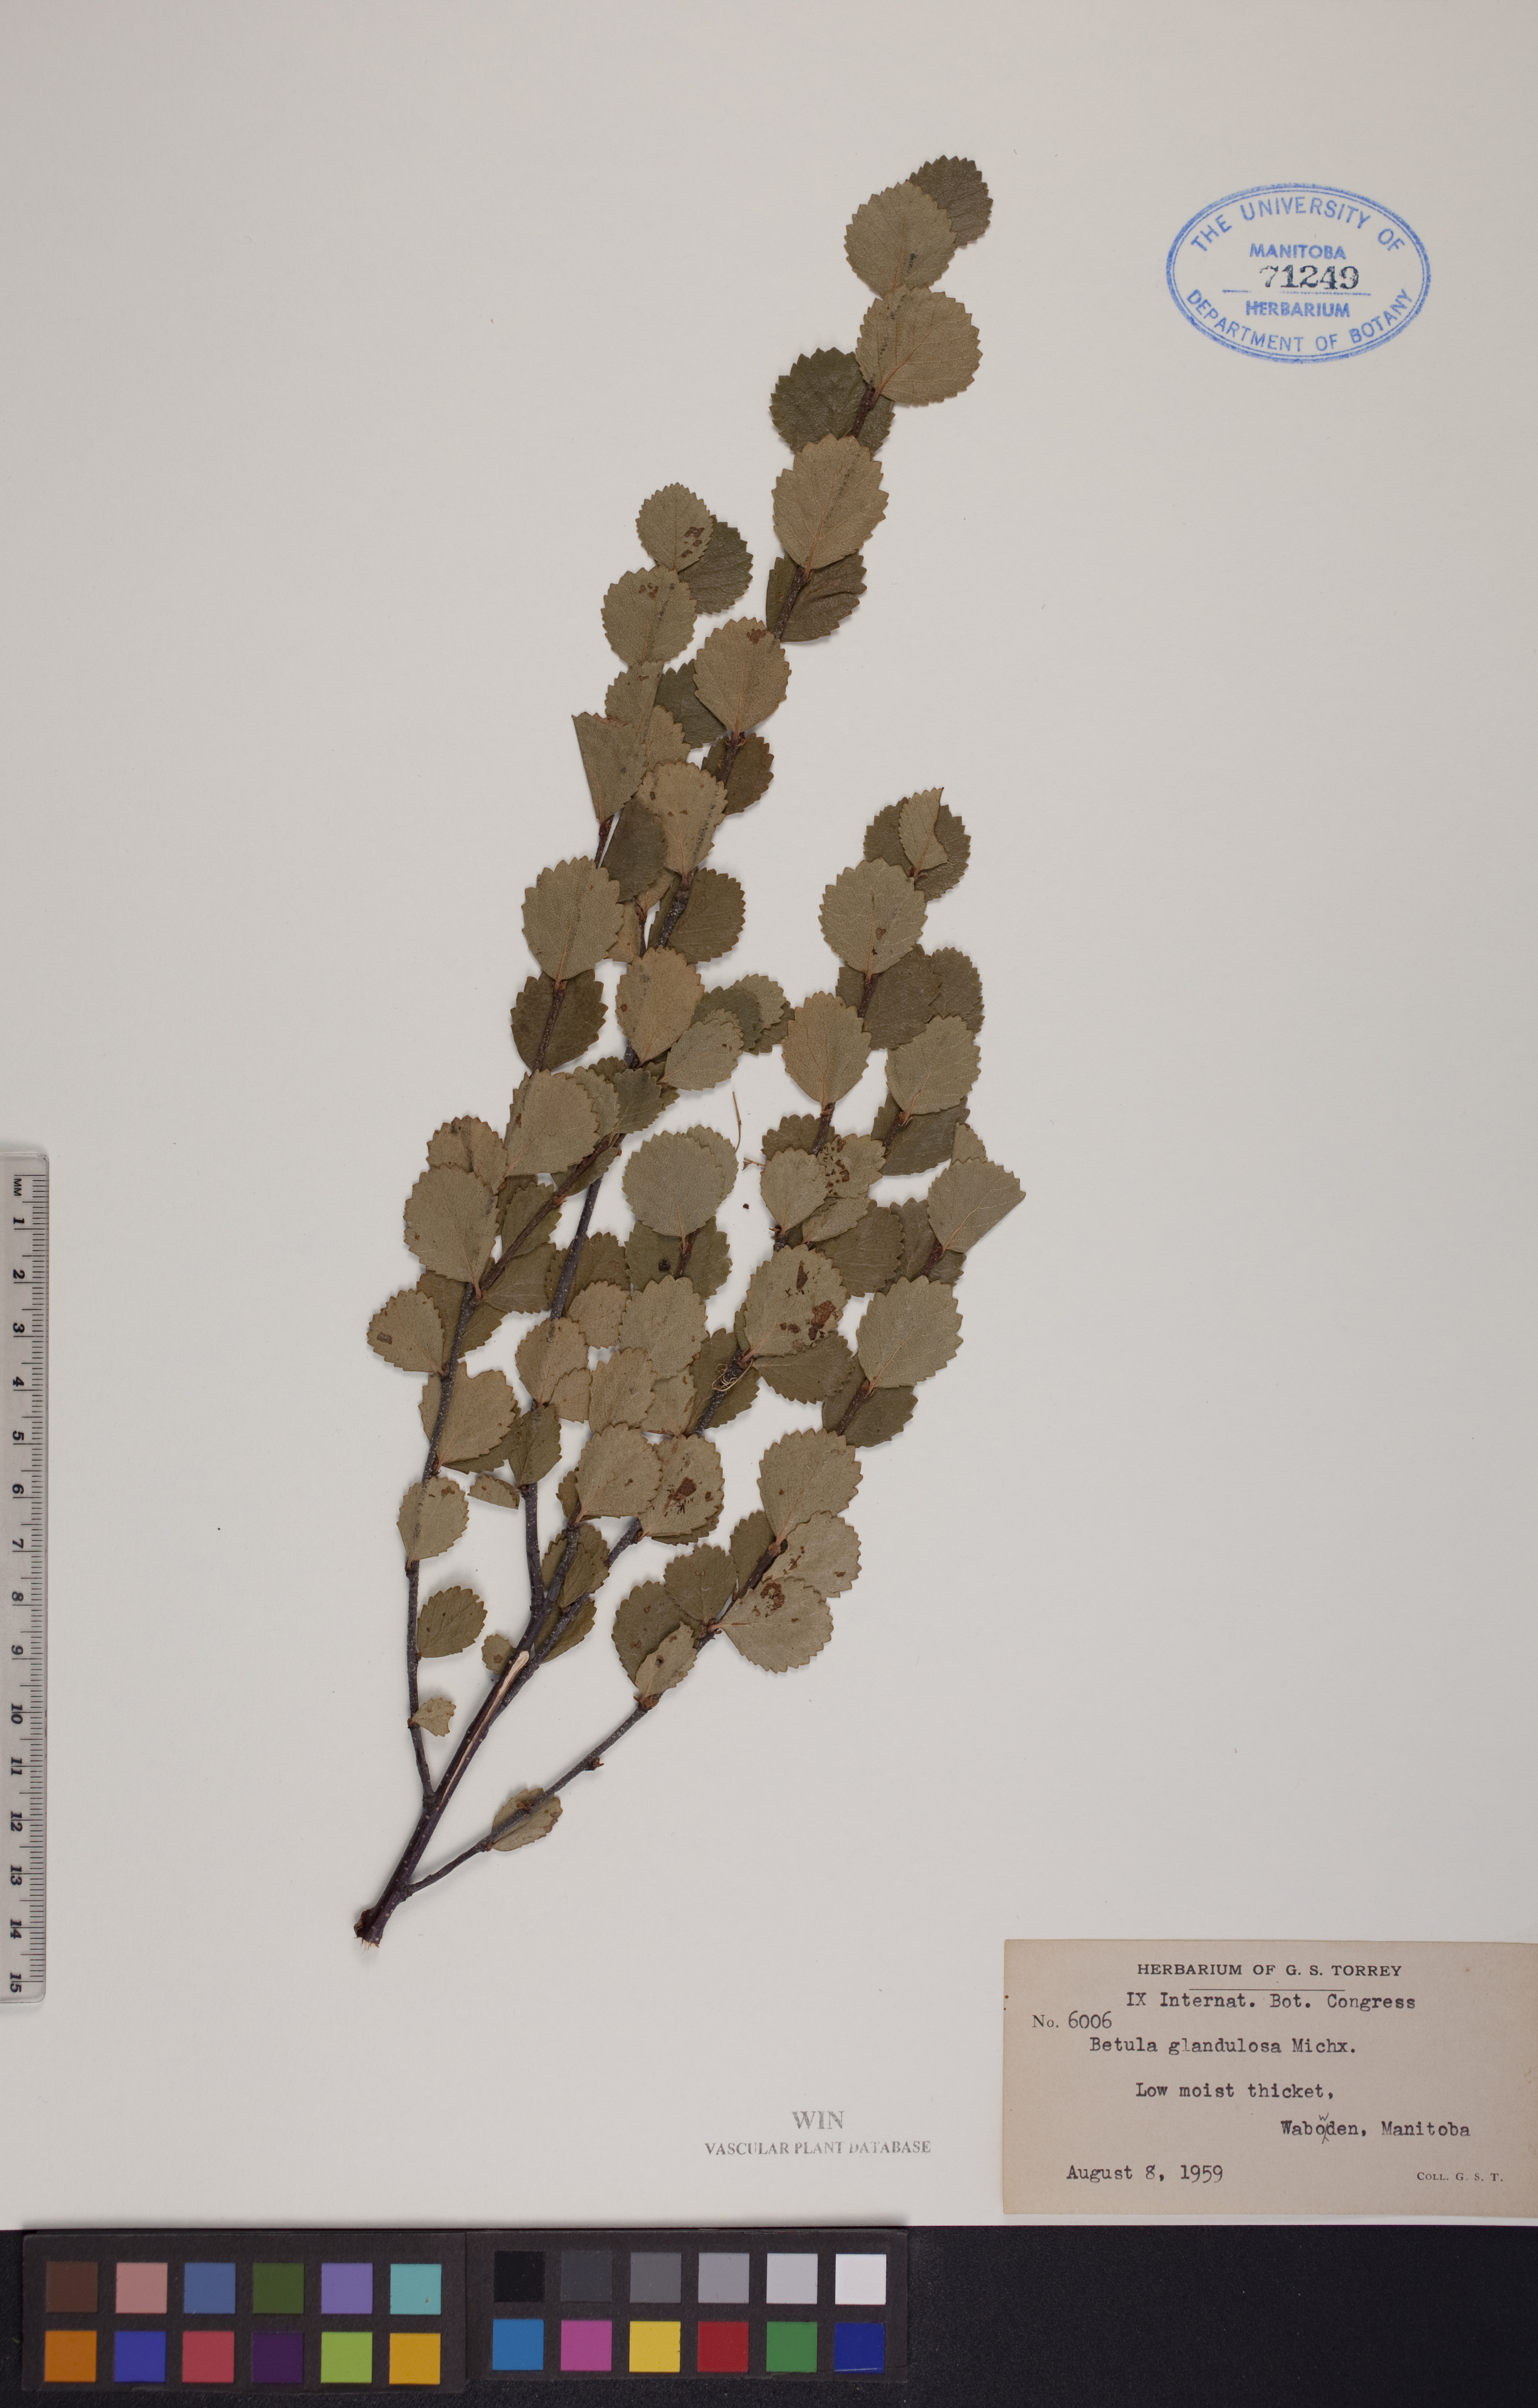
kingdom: Plantae
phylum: Tracheophyta
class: Magnoliopsida
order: Fagales
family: Betulaceae
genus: Betula
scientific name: Betula glandulosa
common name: Dwarf birch
